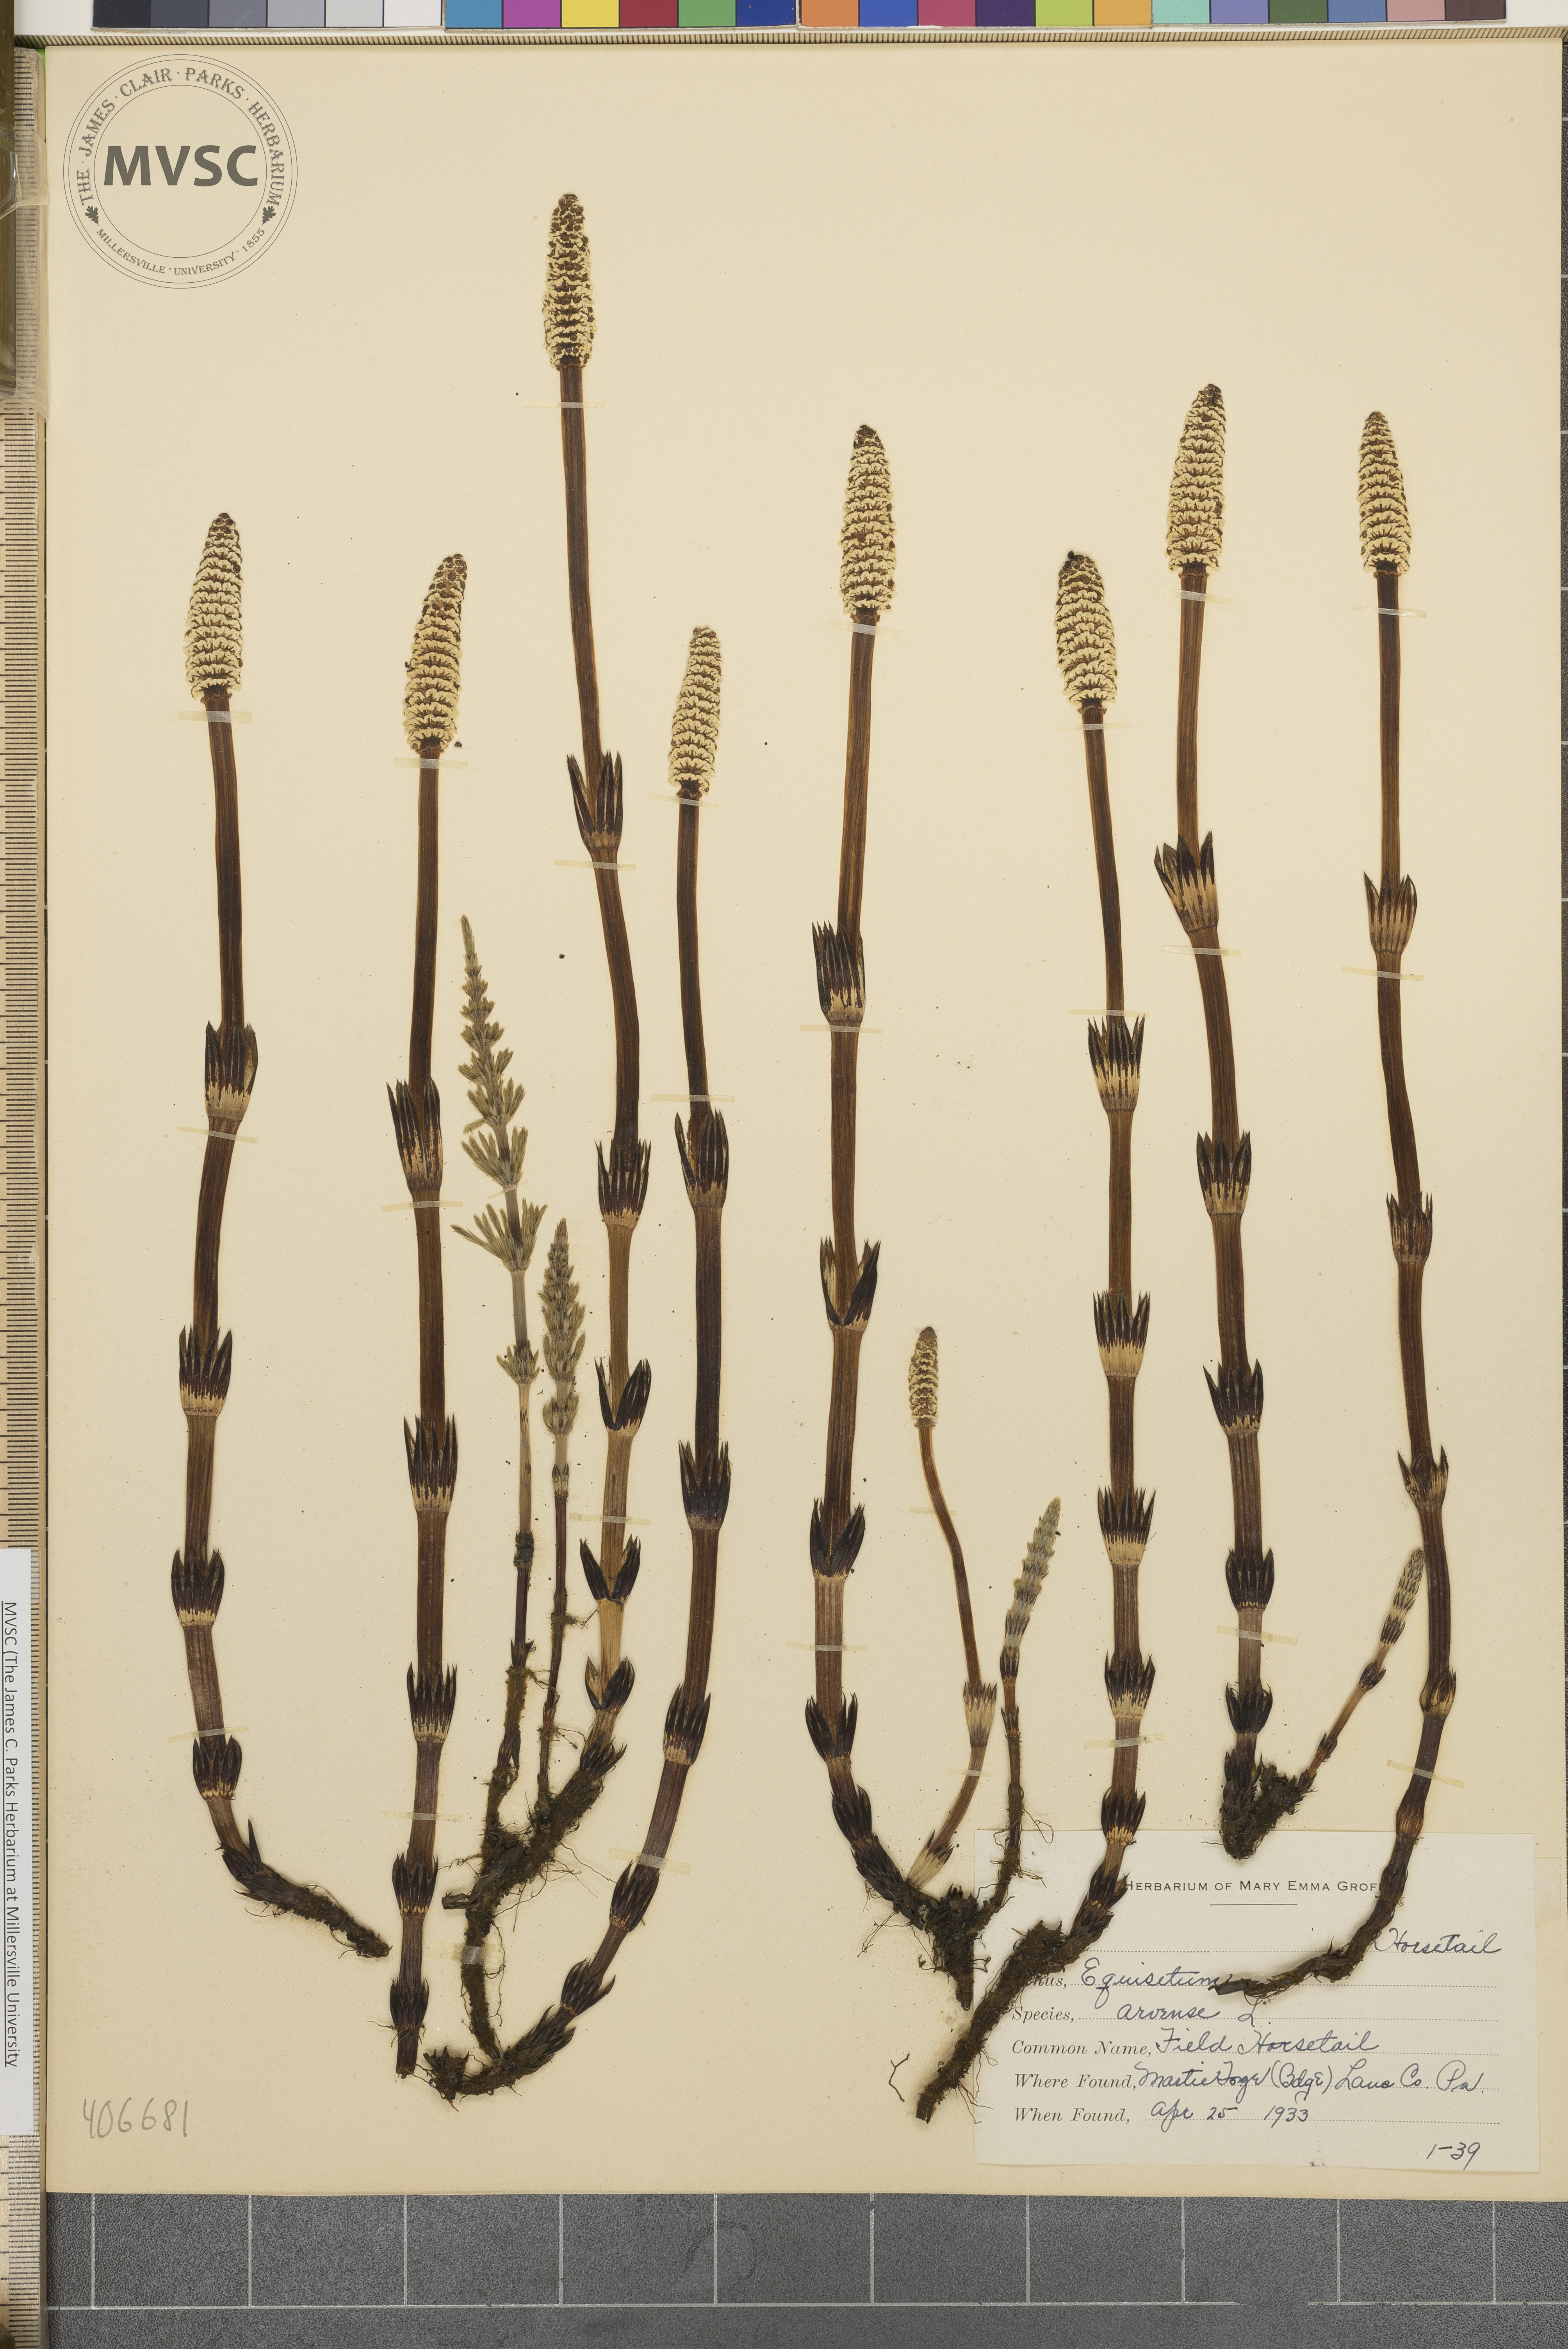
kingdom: Plantae
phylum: Tracheophyta
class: Polypodiopsida
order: Equisetales
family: Equisetaceae
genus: Equisetum
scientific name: Equisetum arvense
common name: Field horsetail
